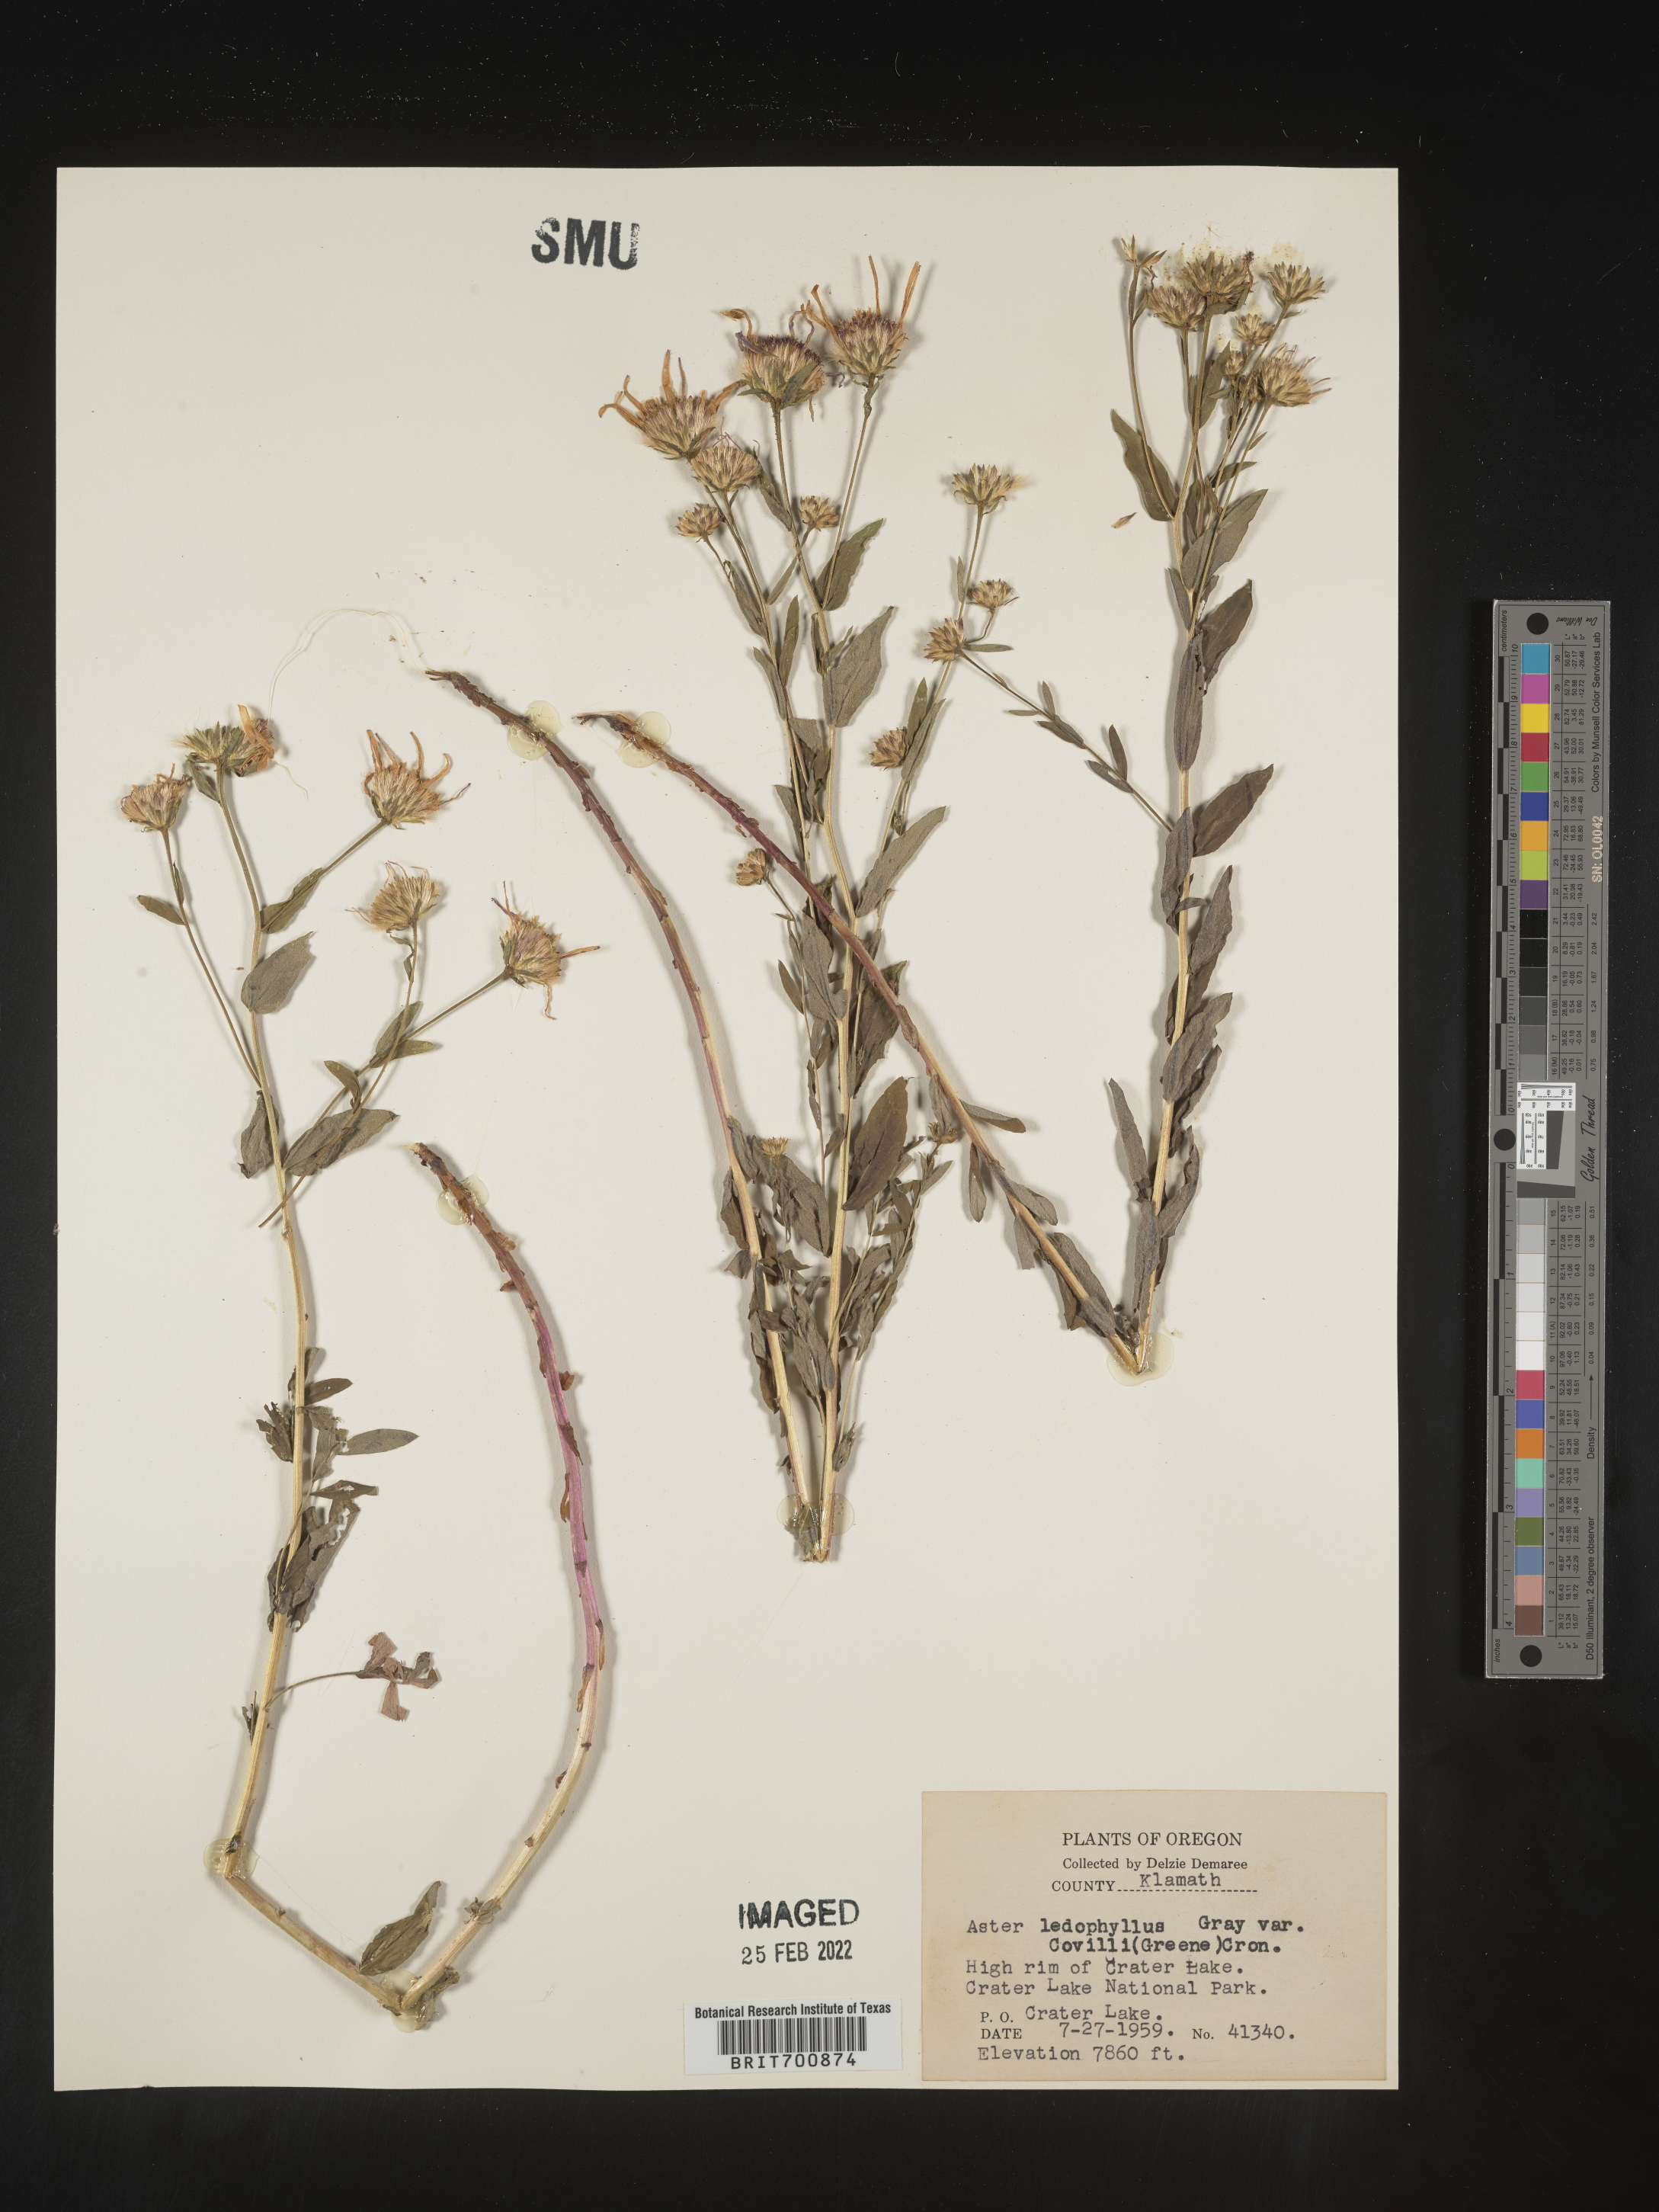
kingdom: Plantae
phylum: Tracheophyta
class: Magnoliopsida
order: Asterales
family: Asteraceae
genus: Eucephalus
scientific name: Eucephalus ledophyllus
